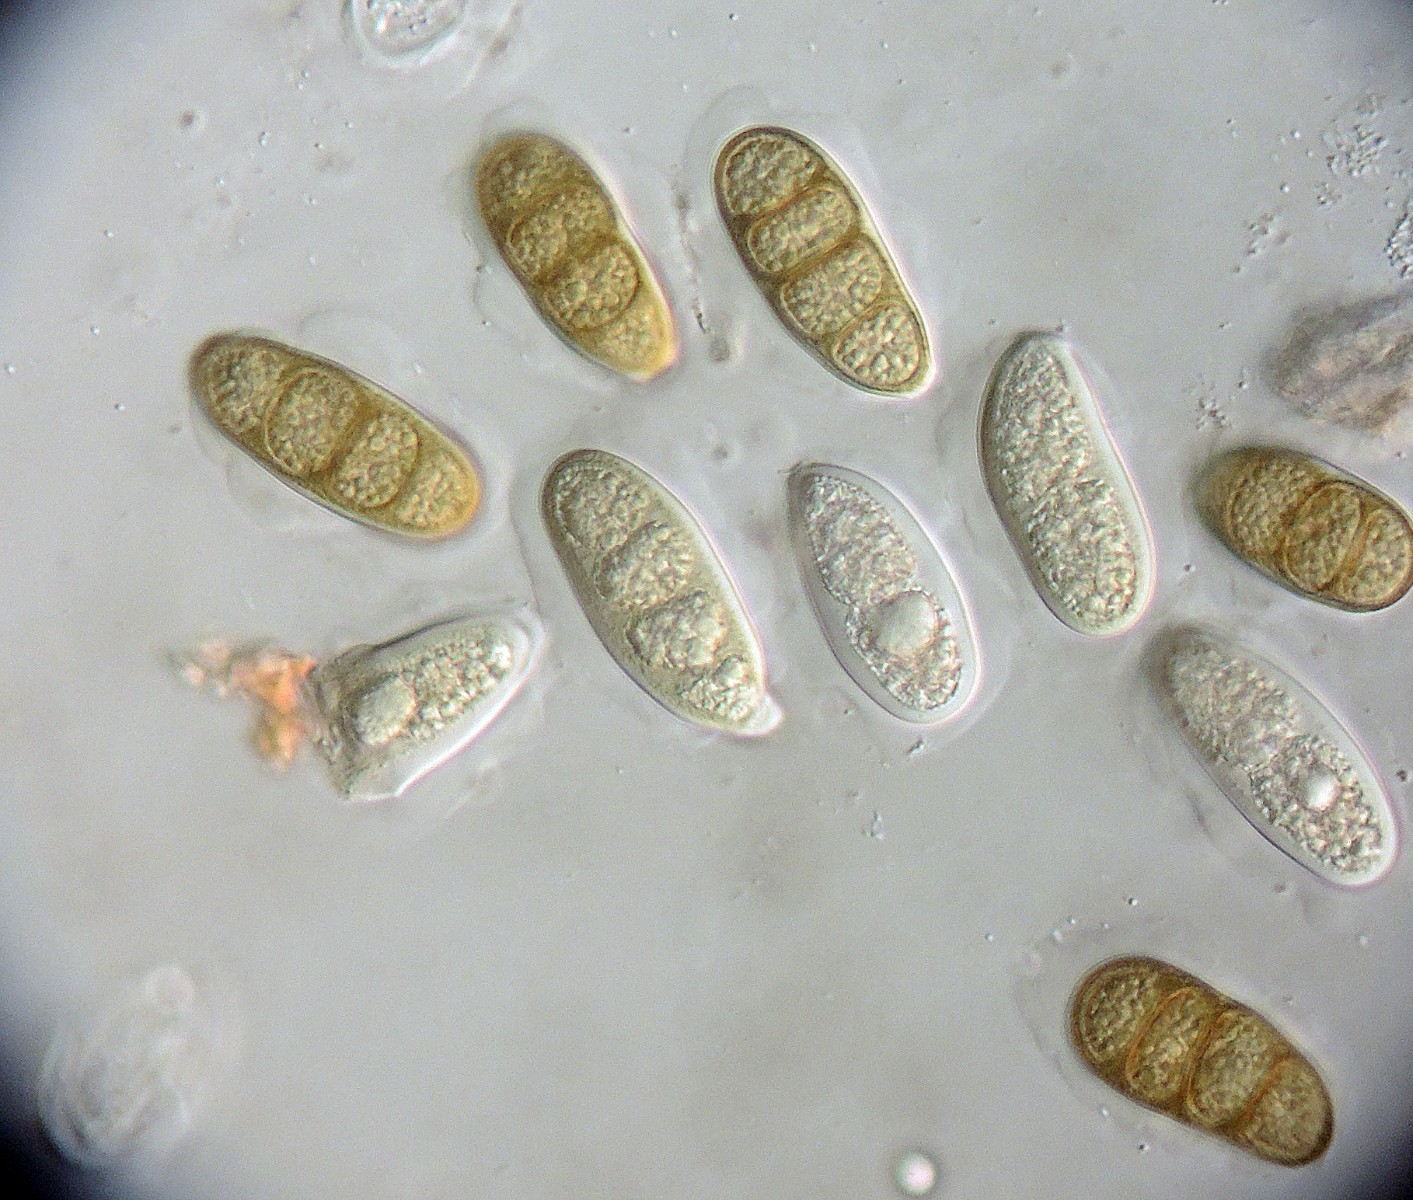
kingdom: Fungi
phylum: Ascomycota
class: Dothideomycetes
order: Pleosporales
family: Macrodiplodiopsidaceae
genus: Macrodiplodiopsis
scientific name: Macrodiplodiopsis desmazieri
